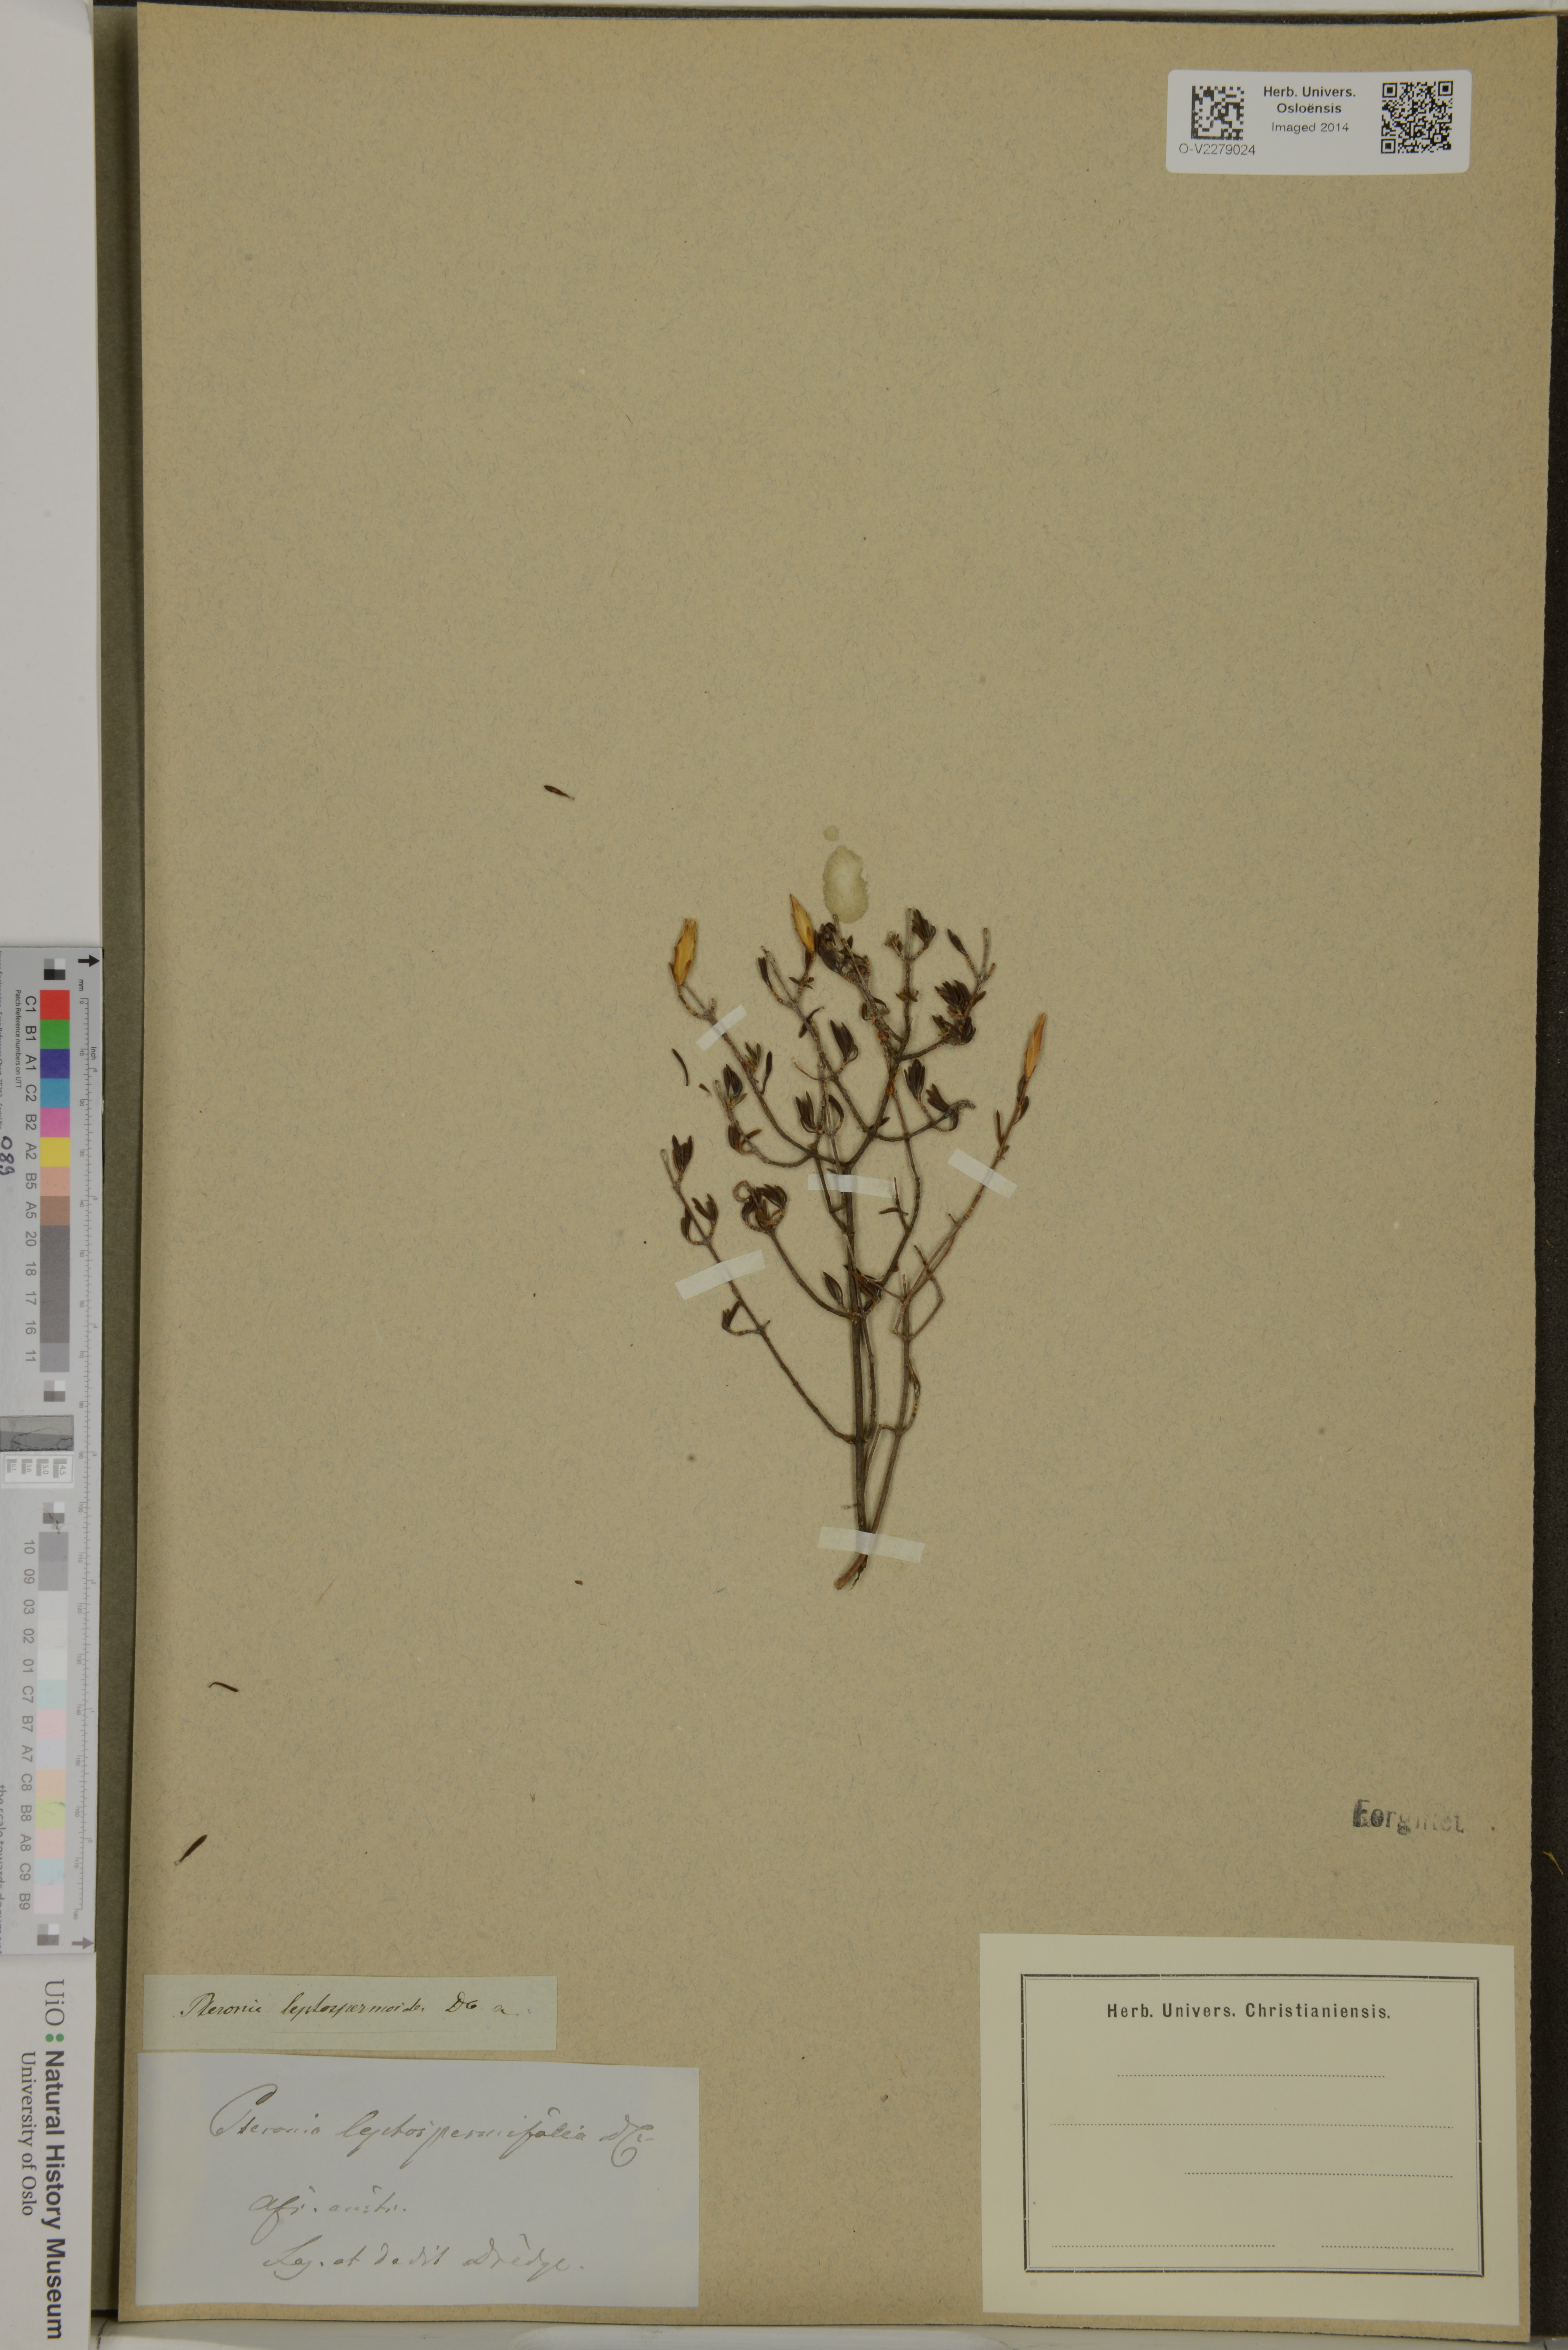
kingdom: Plantae
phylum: Tracheophyta
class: Magnoliopsida
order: Asterales
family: Asteraceae
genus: Pteronia
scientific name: Pteronia leptospermoides
